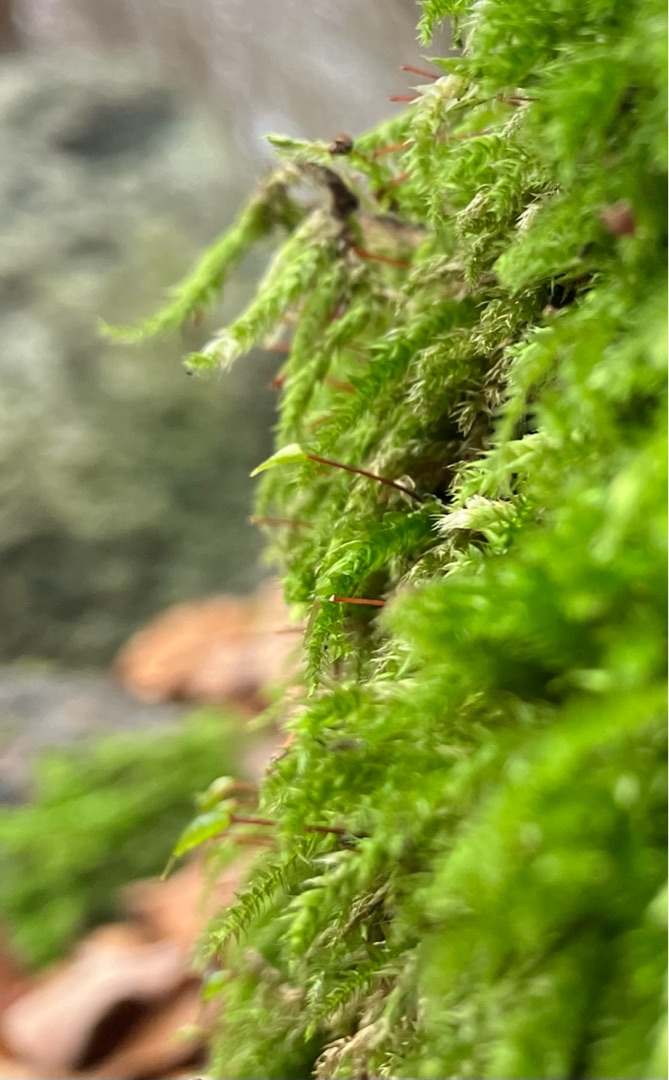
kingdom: Plantae
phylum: Bryophyta
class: Bryopsida
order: Hypnales
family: Brachytheciaceae
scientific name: Brachytheciaceae
